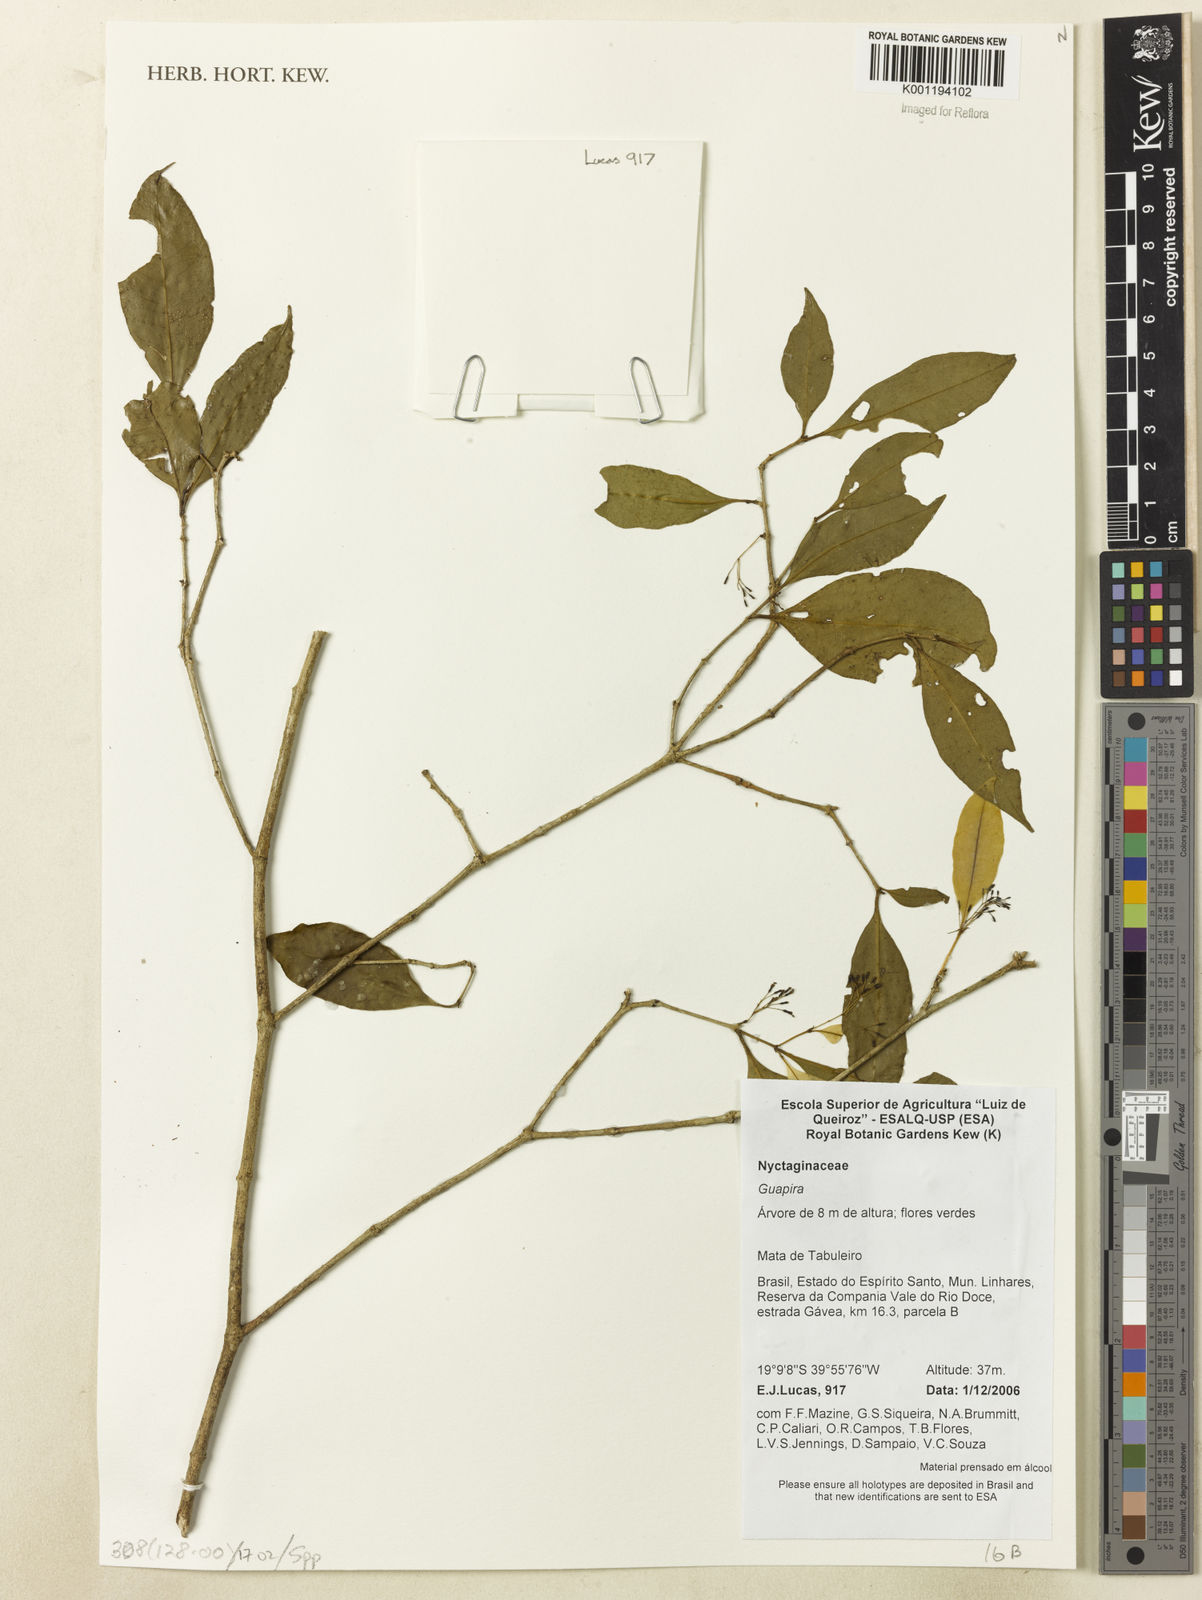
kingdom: Plantae
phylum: Tracheophyta
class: Magnoliopsida
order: Caryophyllales
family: Nyctaginaceae
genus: Guapira
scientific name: Guapira
